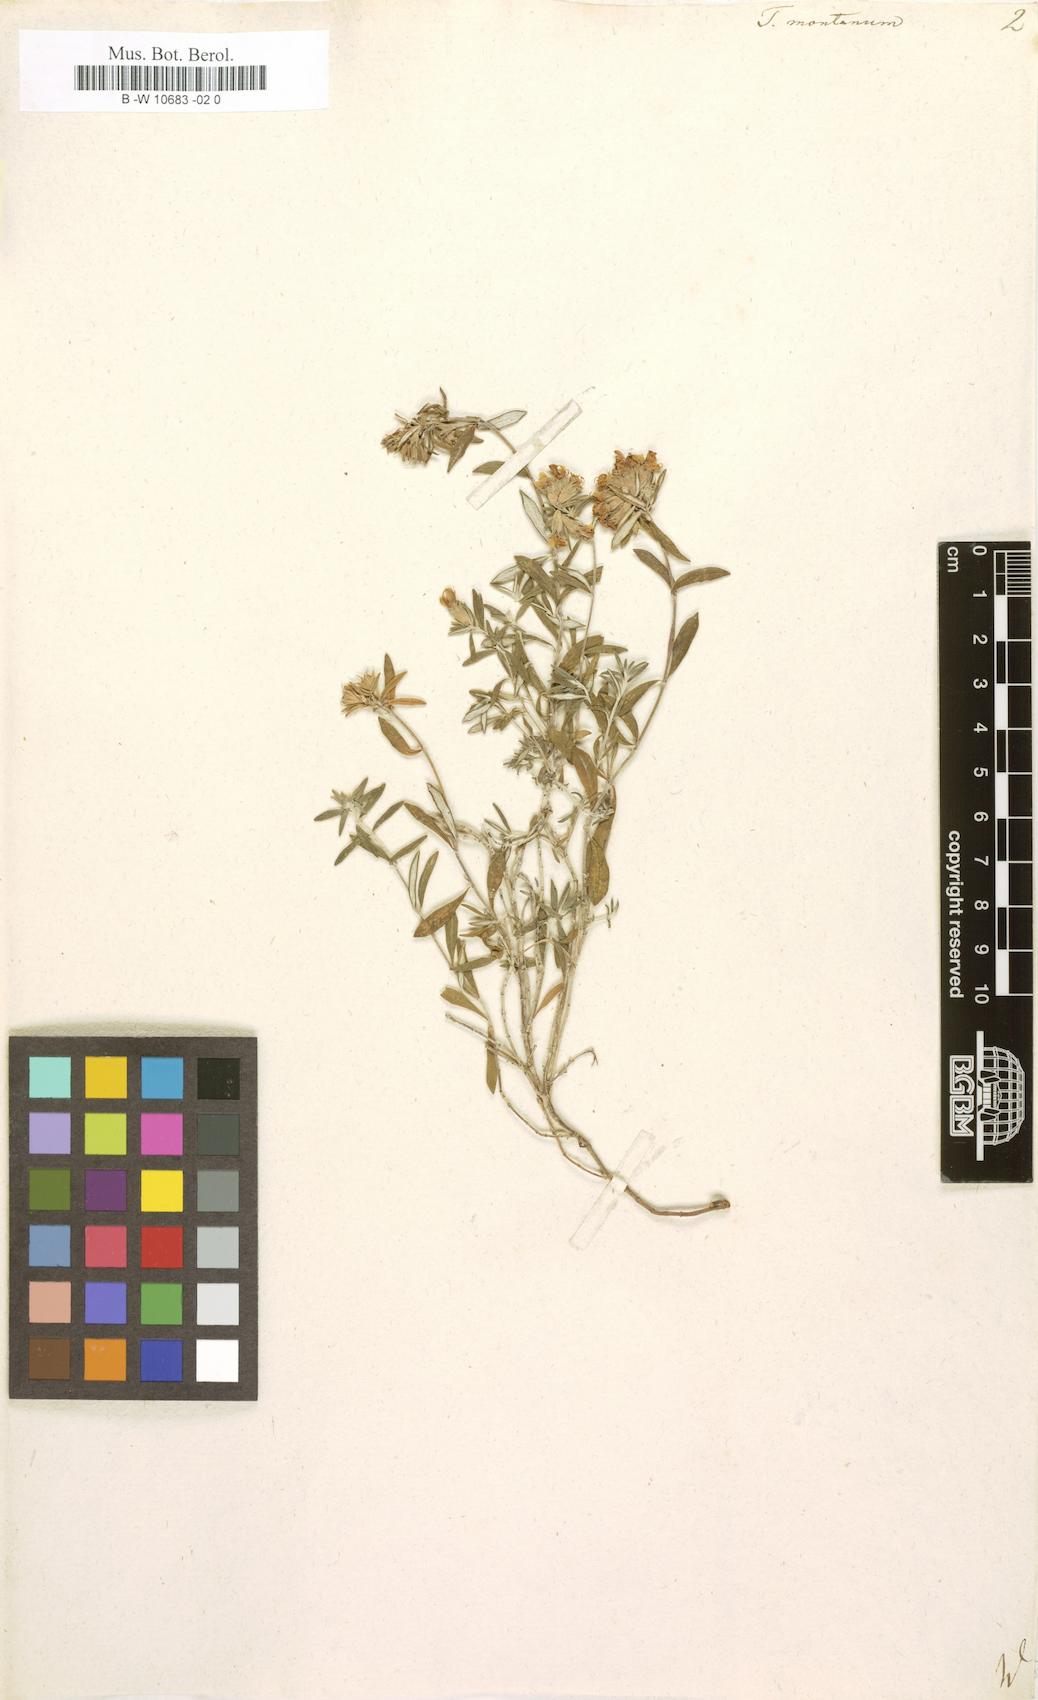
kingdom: Plantae
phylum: Tracheophyta
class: Magnoliopsida
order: Lamiales
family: Lamiaceae
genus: Teucrium
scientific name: Teucrium montanum
